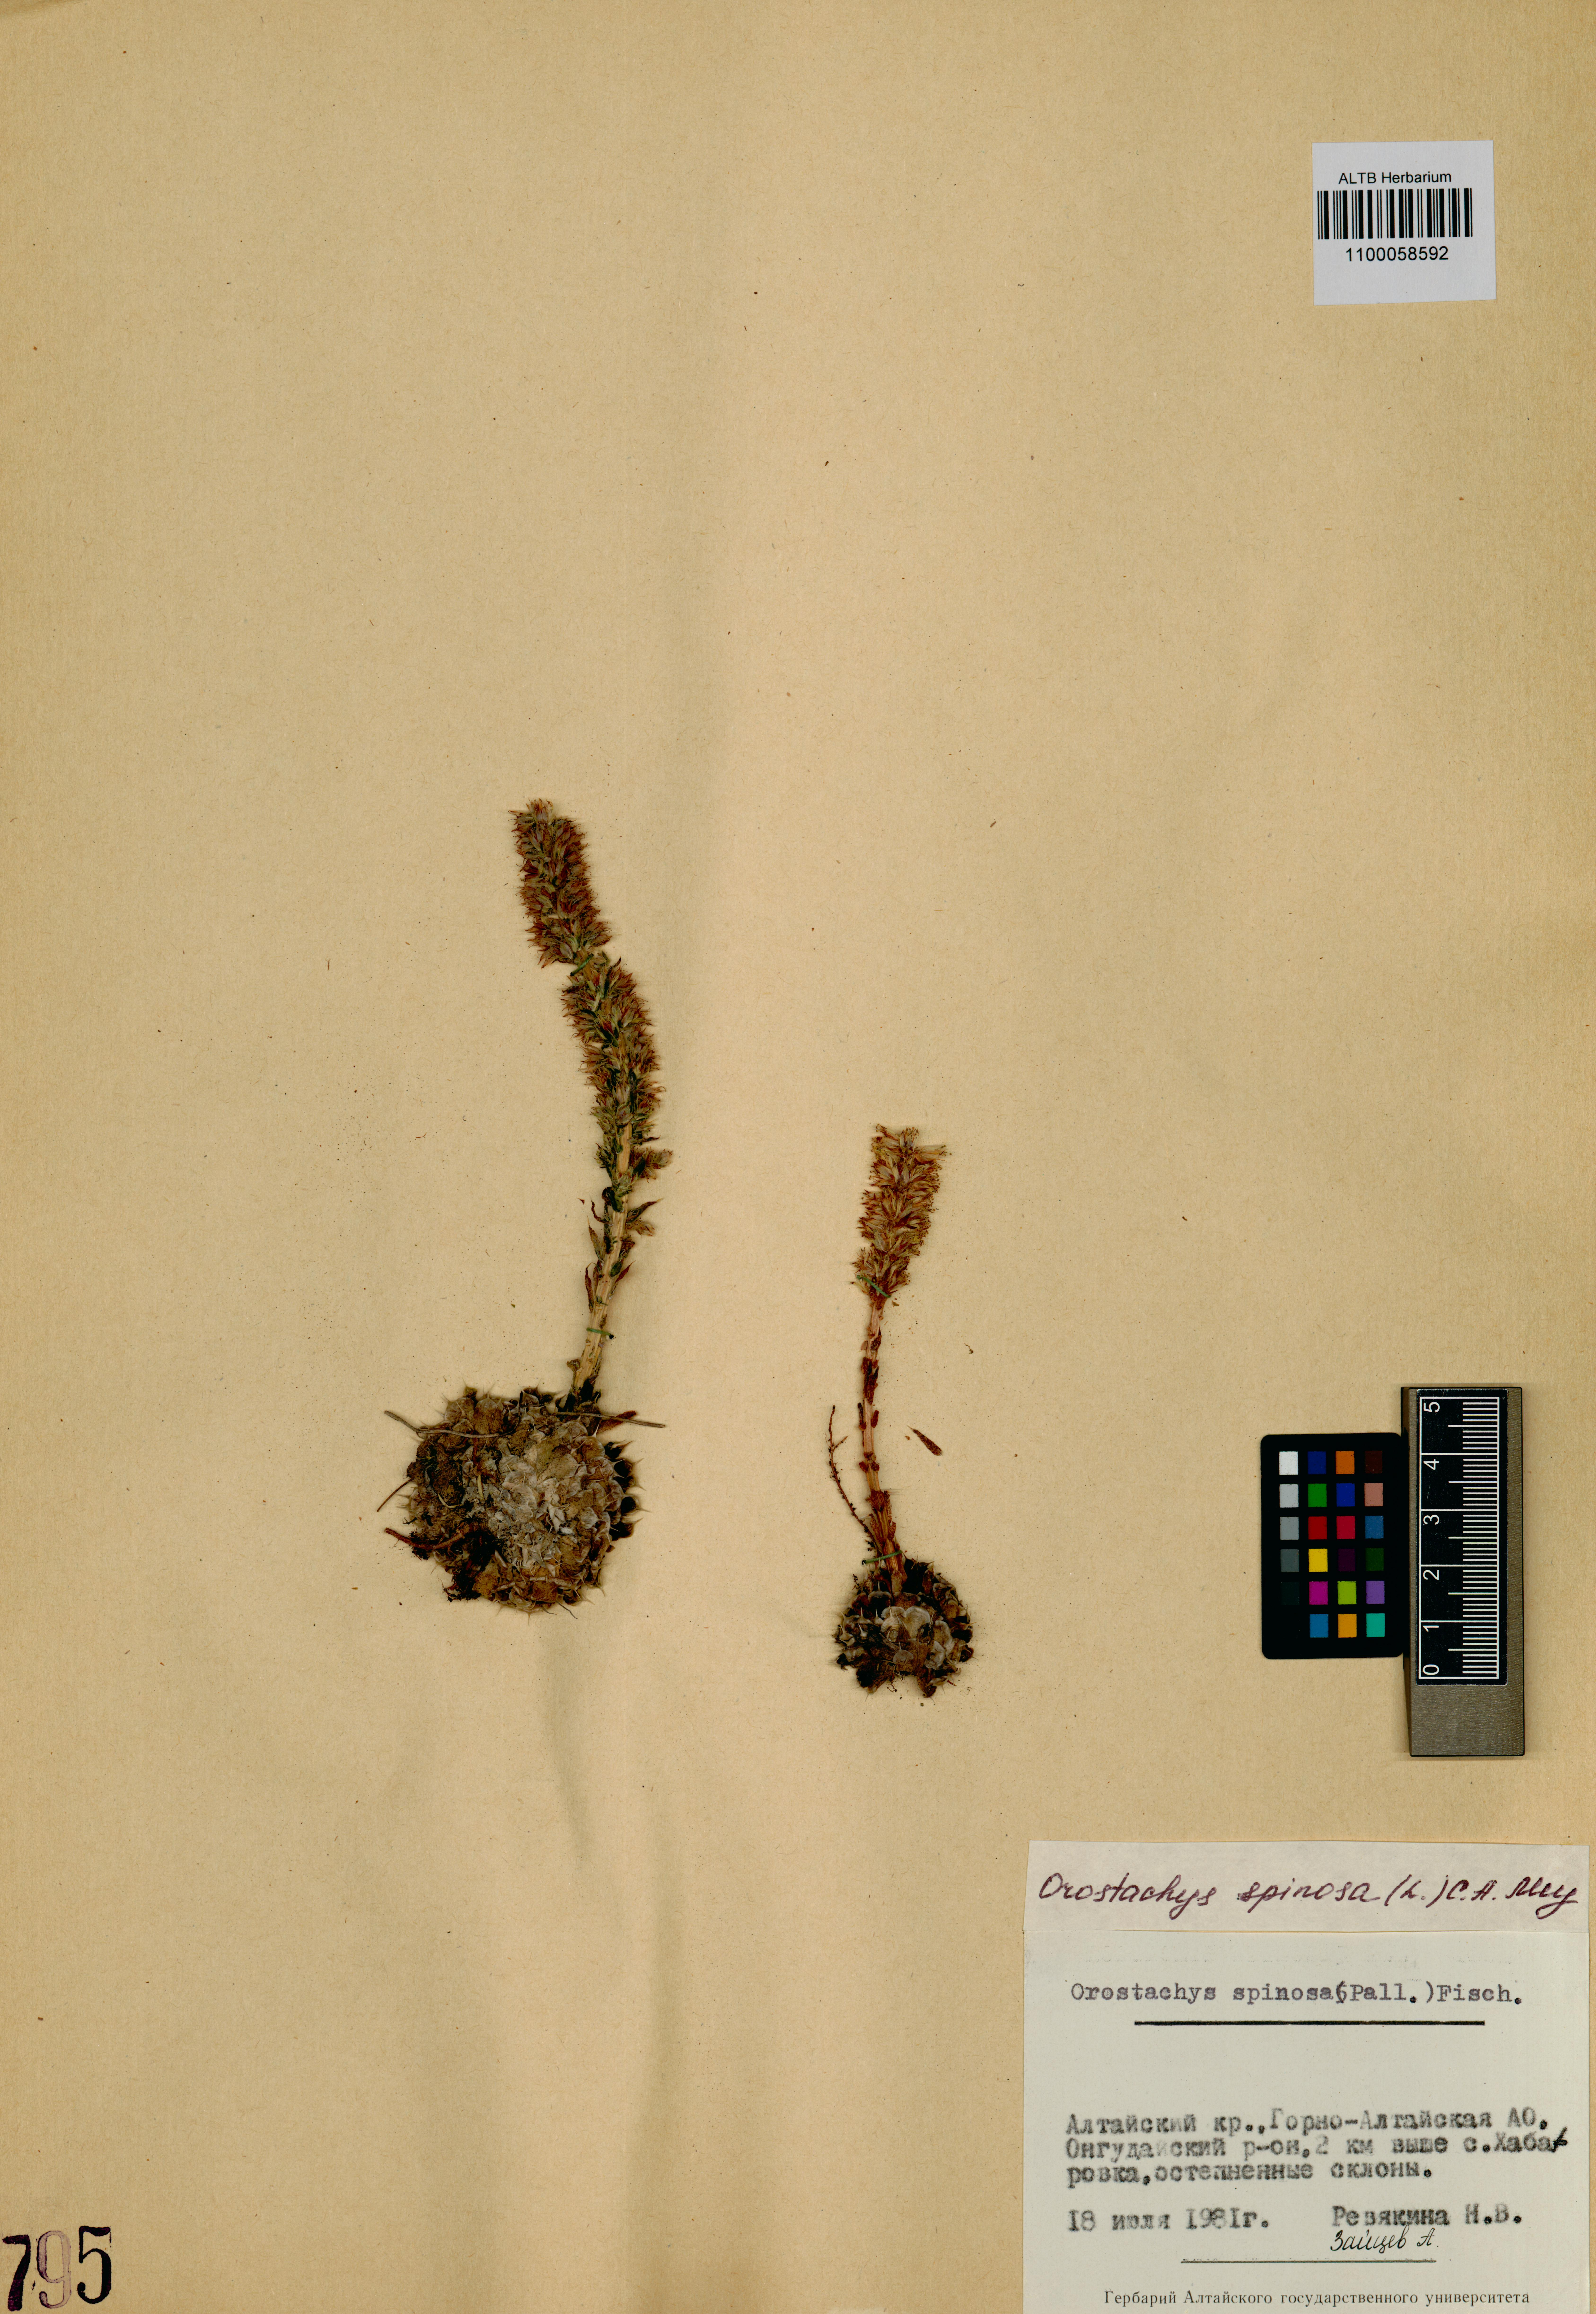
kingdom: Plantae
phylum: Tracheophyta
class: Magnoliopsida
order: Saxifragales
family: Crassulaceae
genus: Orostachys
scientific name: Orostachys spinosa
